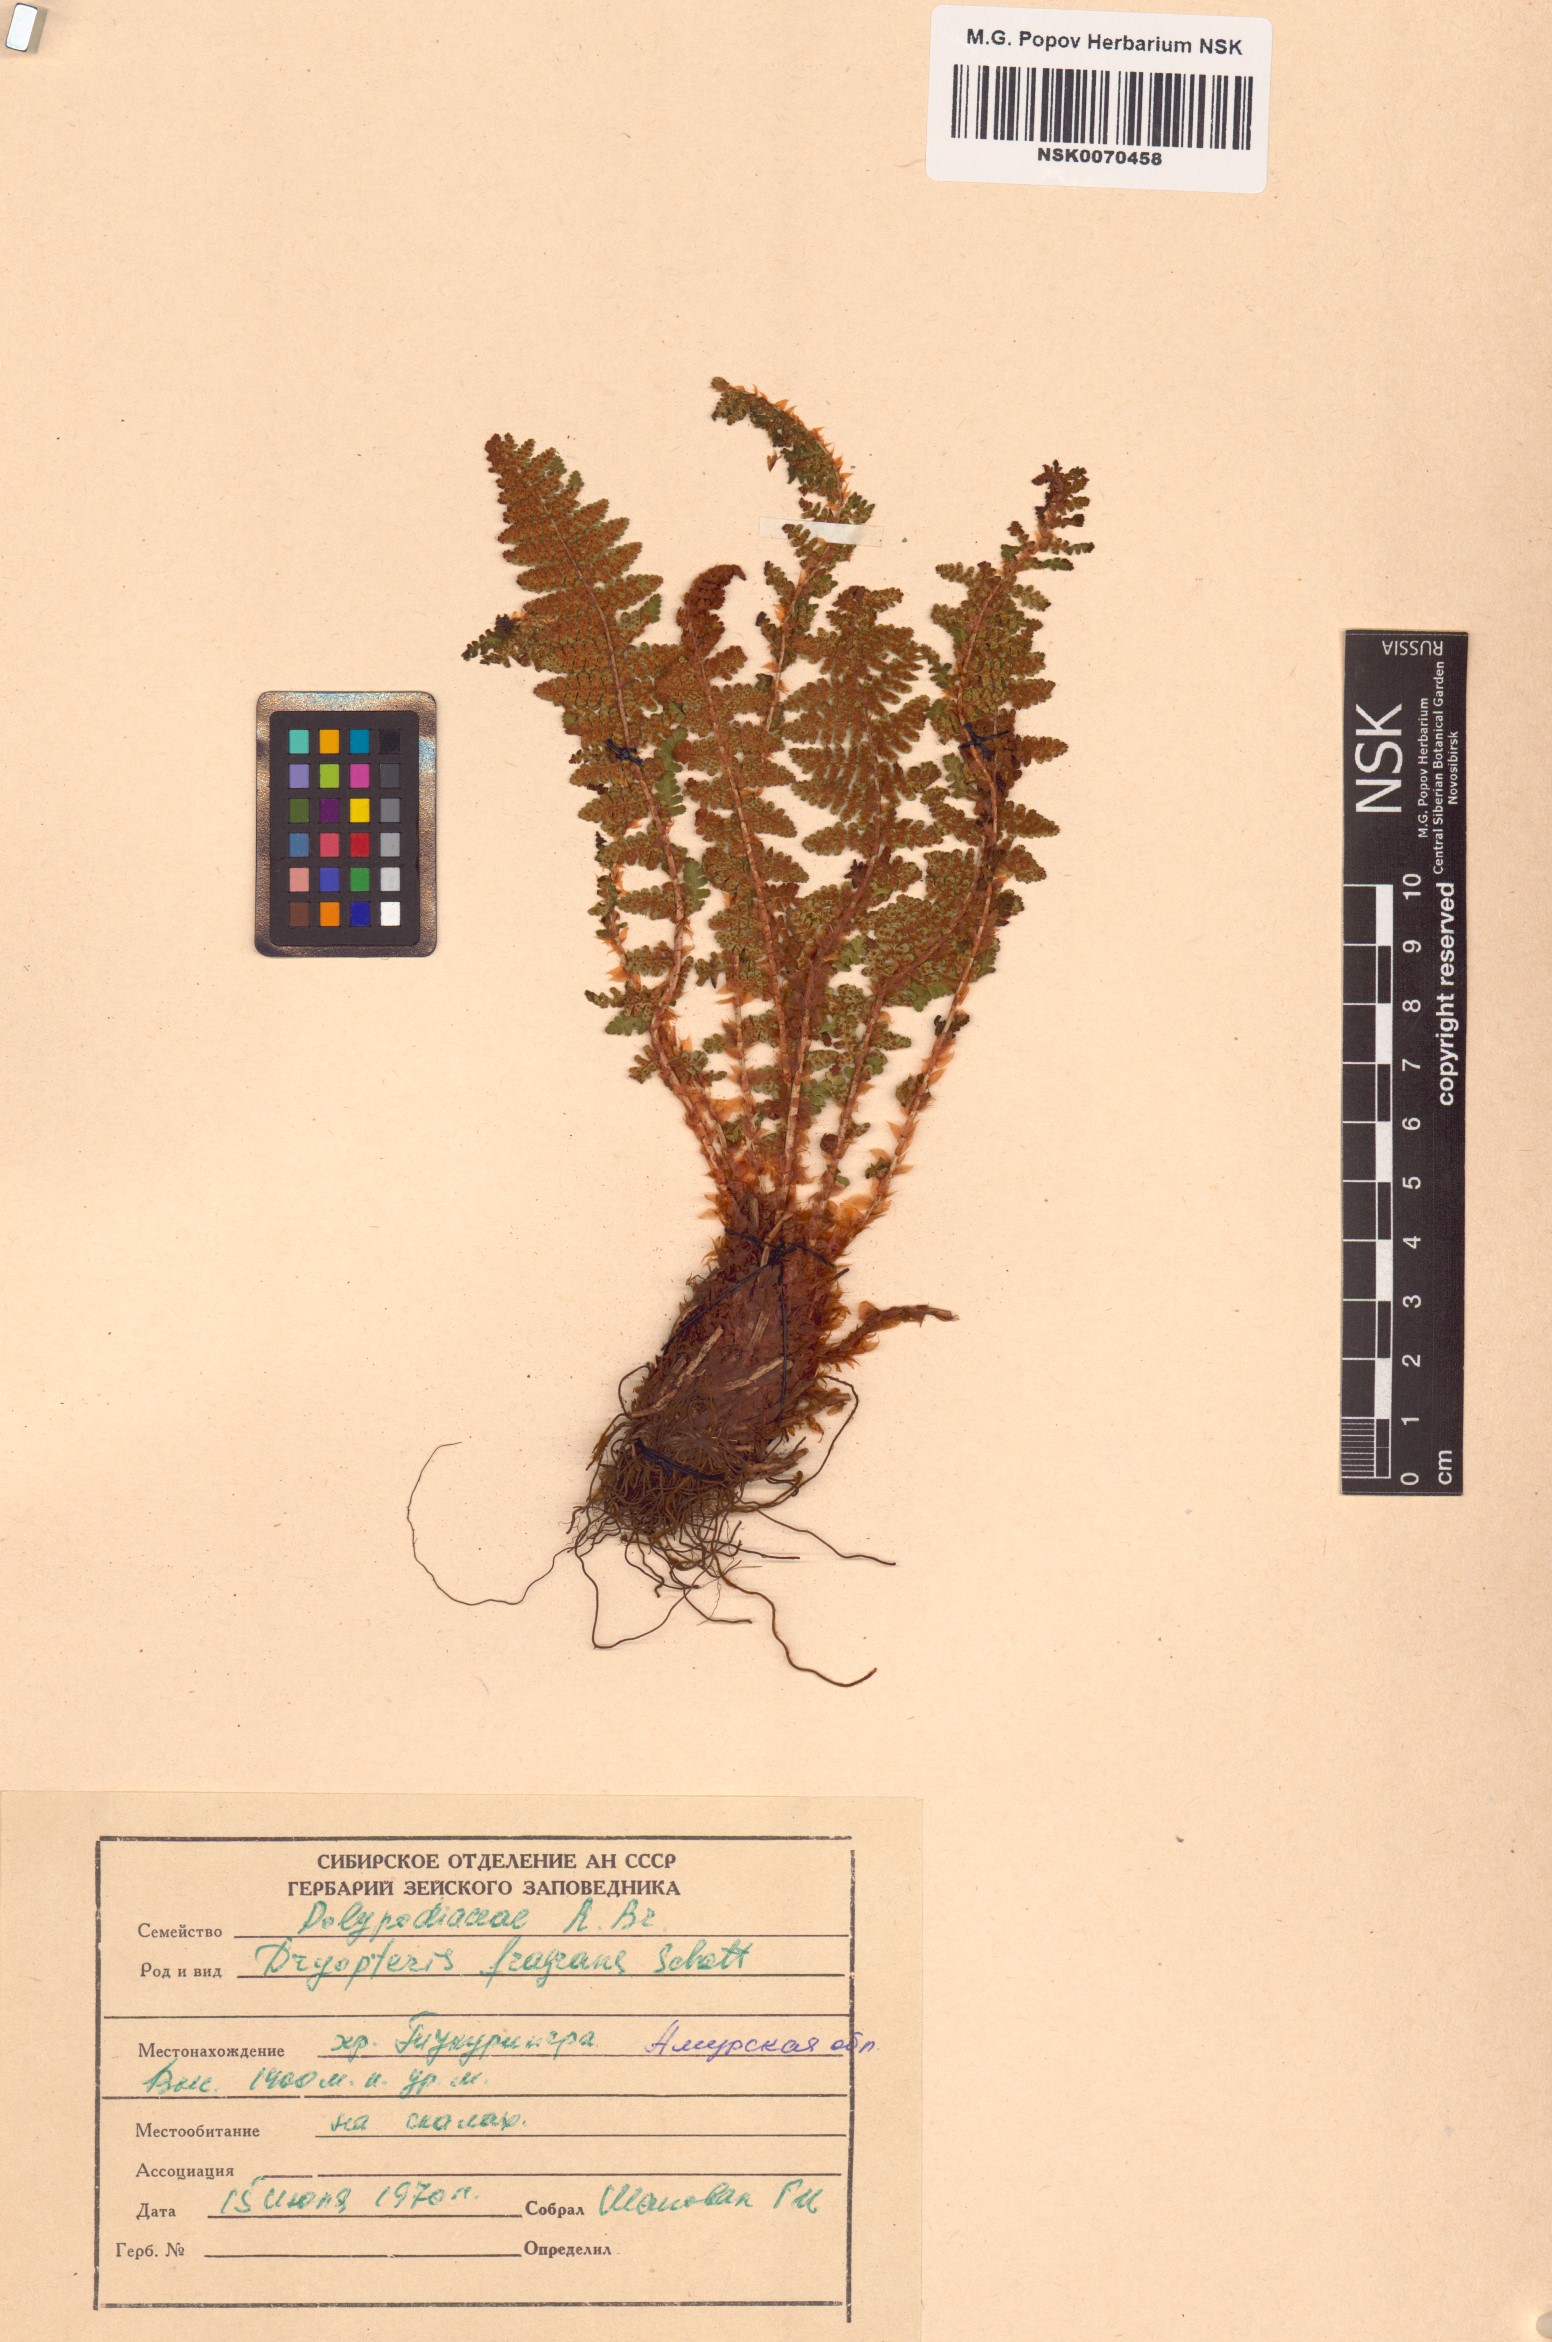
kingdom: Plantae
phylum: Tracheophyta
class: Polypodiopsida
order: Polypodiales
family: Dryopteridaceae
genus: Dryopteris
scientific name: Dryopteris fragrans
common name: Fragrant wood fern
